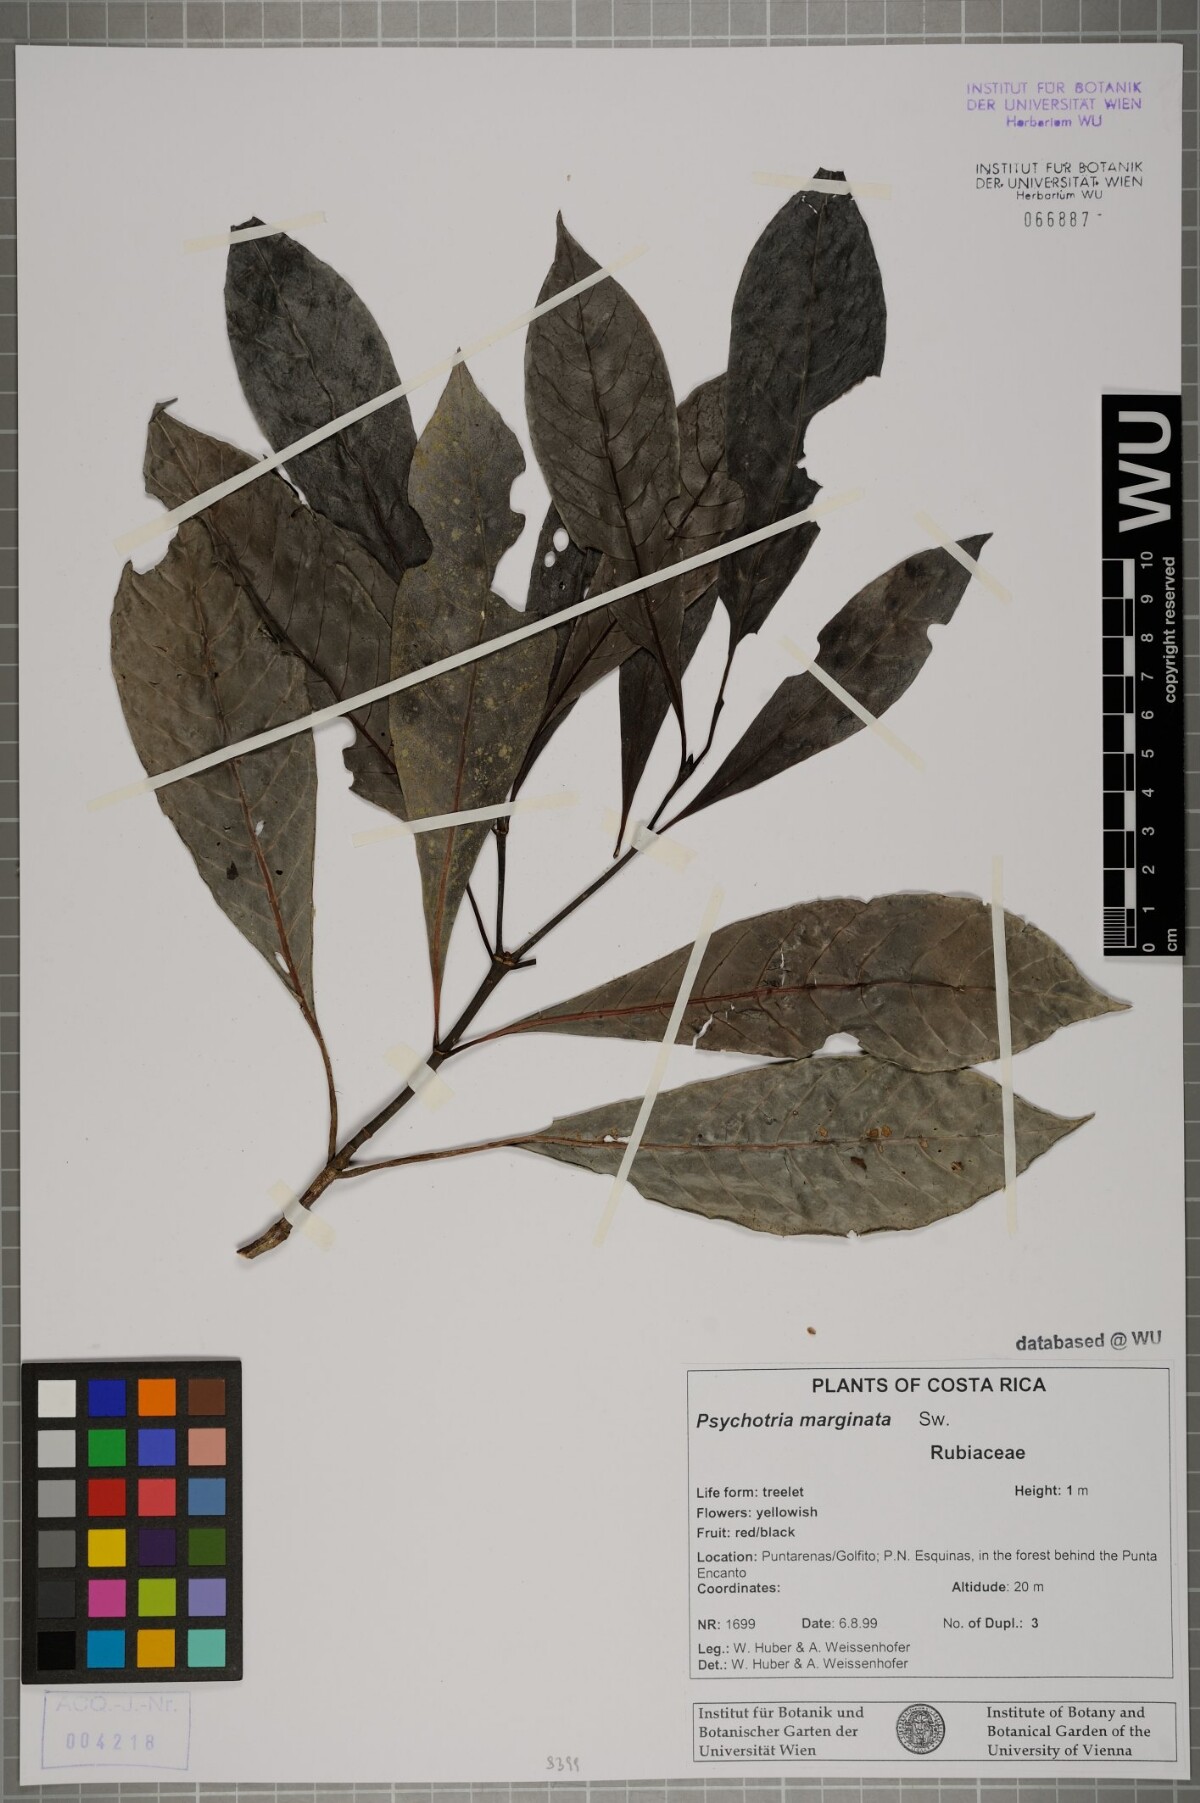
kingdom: Plantae
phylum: Tracheophyta
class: Magnoliopsida
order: Gentianales
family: Rubiaceae
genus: Psychotria
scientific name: Psychotria marginata
